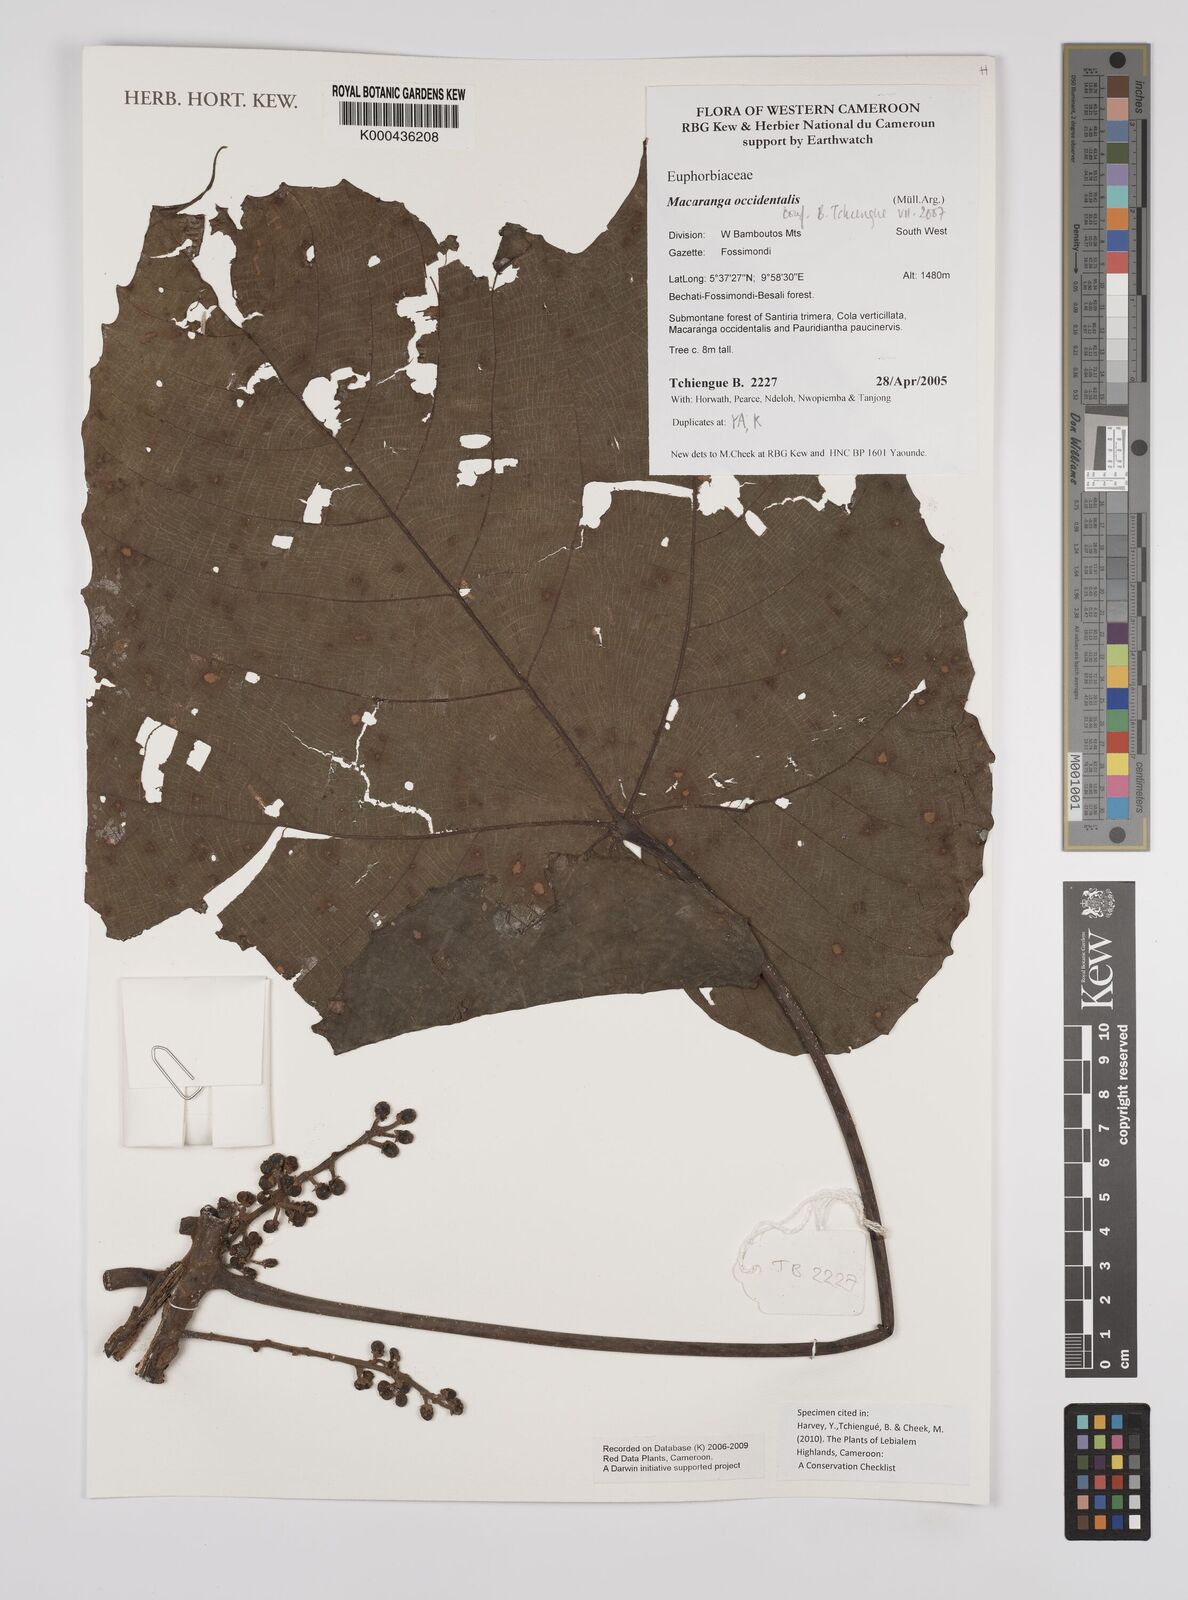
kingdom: Plantae
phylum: Tracheophyta
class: Magnoliopsida
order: Malpighiales
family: Euphorbiaceae
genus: Macaranga
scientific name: Macaranga
